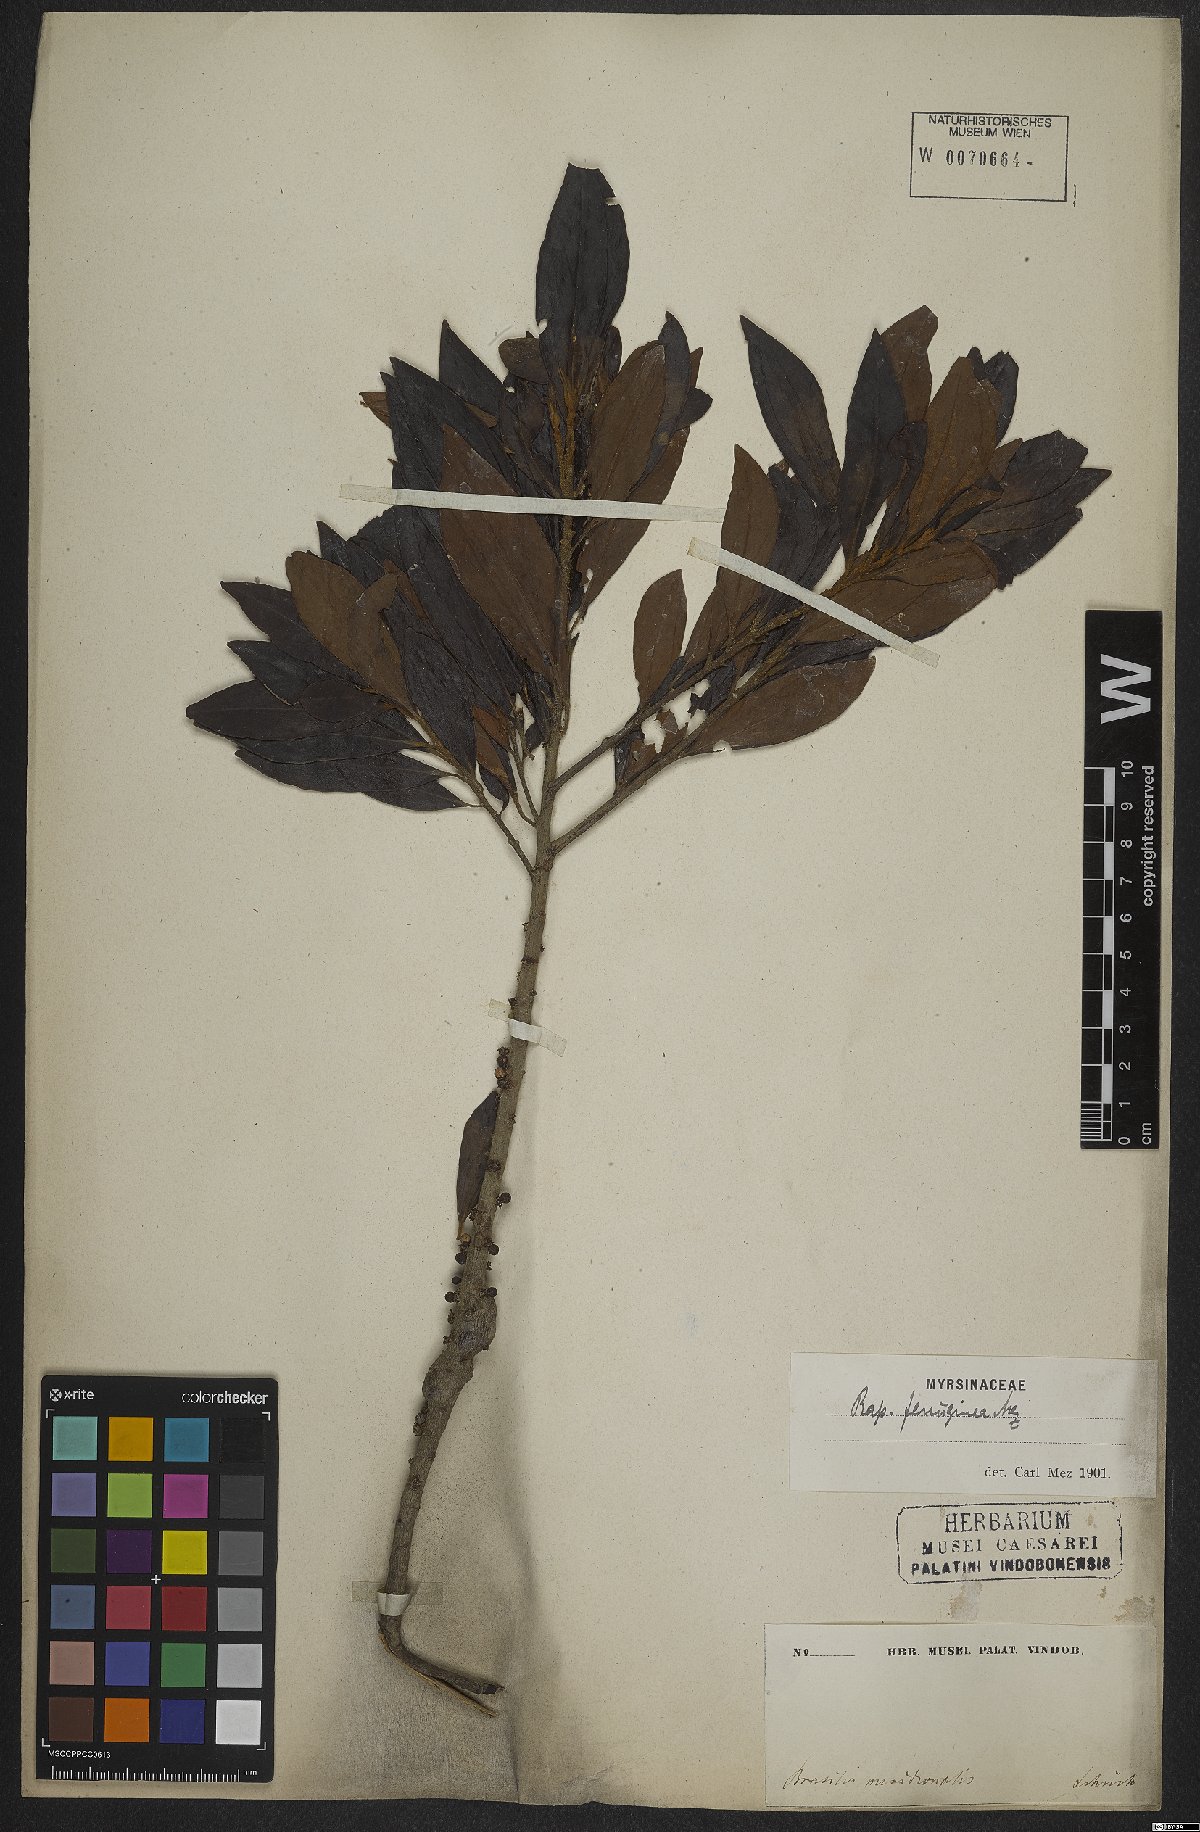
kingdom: Plantae
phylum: Tracheophyta
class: Magnoliopsida
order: Ericales
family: Primulaceae
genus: Myrsine
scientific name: Myrsine coriacea
